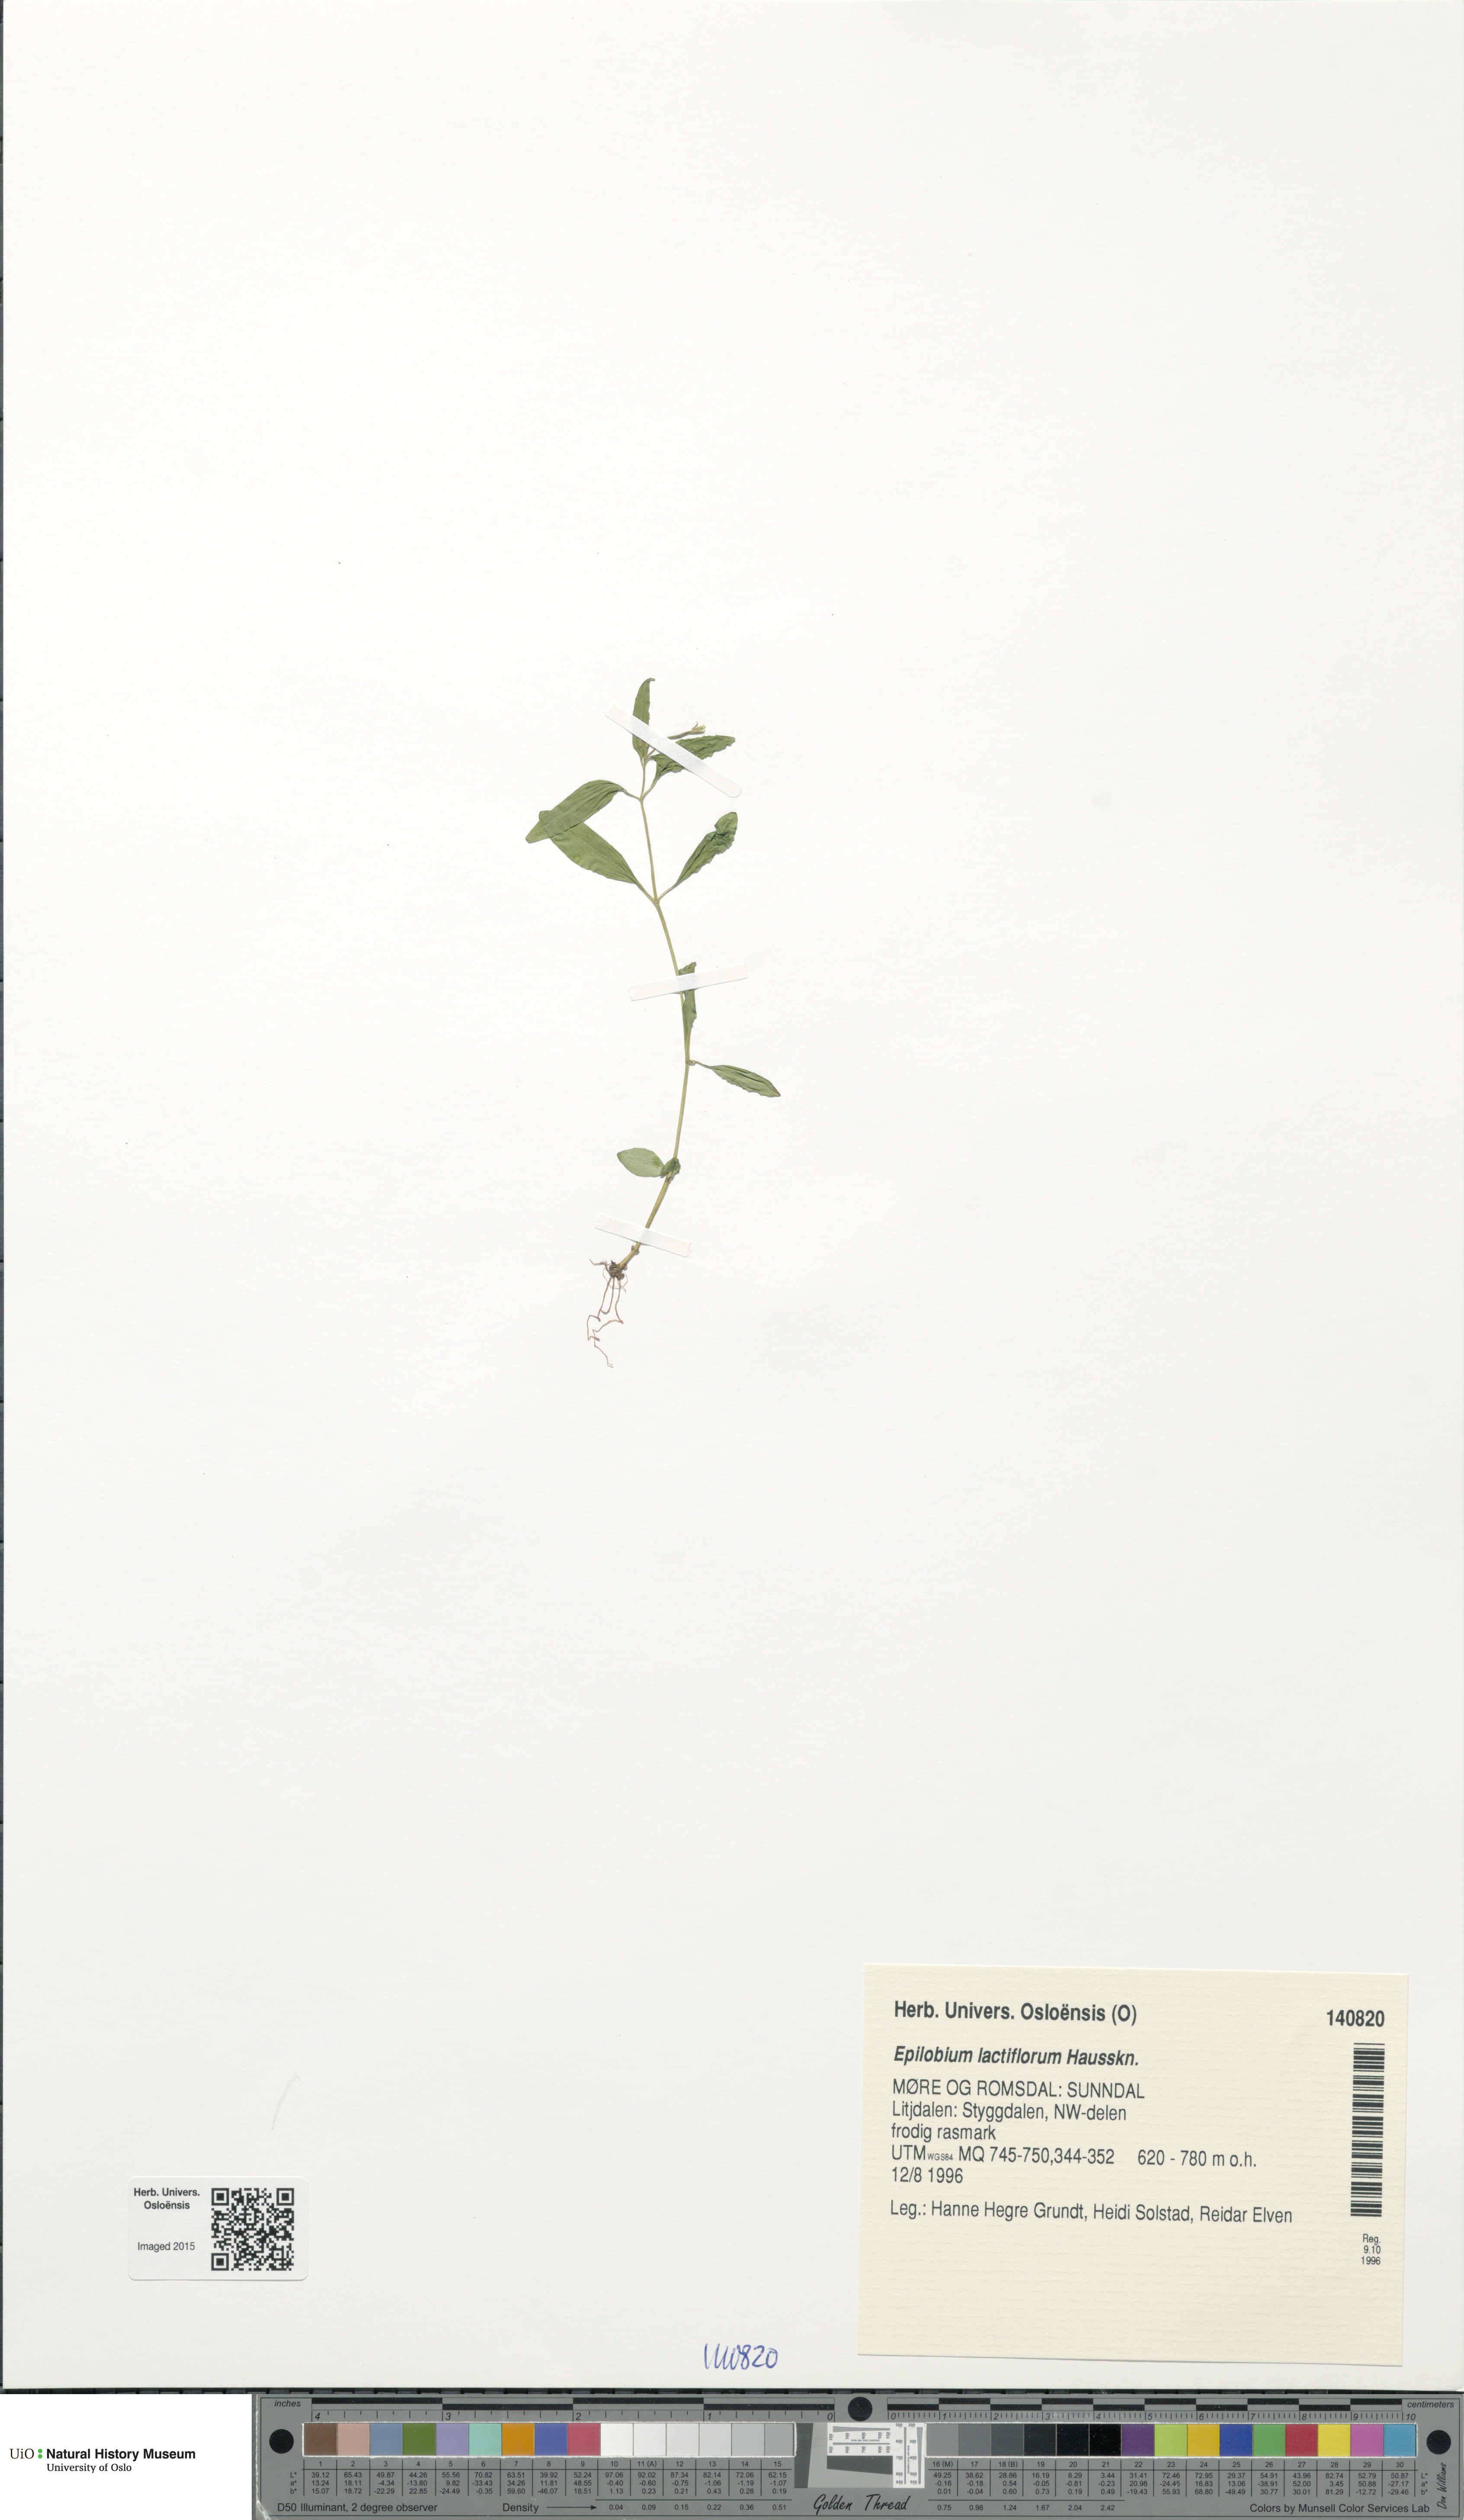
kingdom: Plantae
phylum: Tracheophyta
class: Magnoliopsida
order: Myrtales
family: Onagraceae
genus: Epilobium
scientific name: Epilobium lactiflorum
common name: Milkflower willowherb
